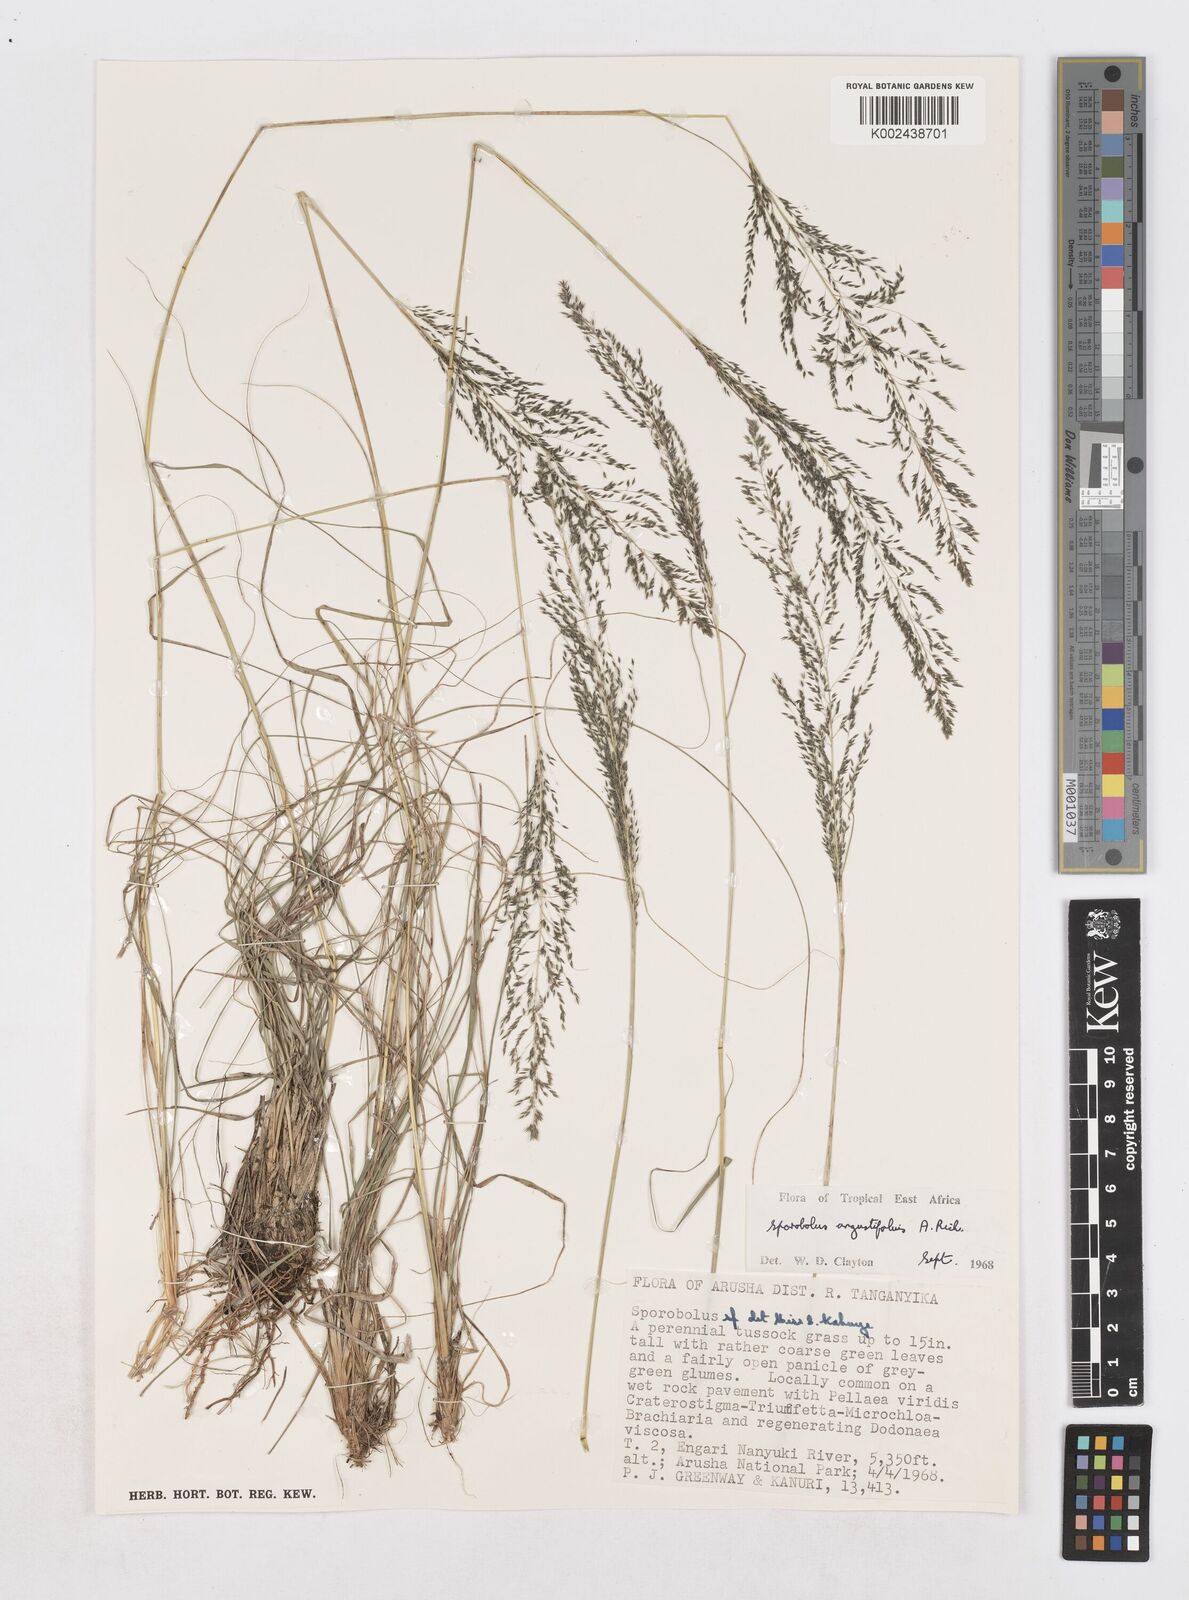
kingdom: Plantae
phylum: Tracheophyta
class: Liliopsida
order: Poales
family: Poaceae
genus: Sporobolus
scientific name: Sporobolus angustifolius
